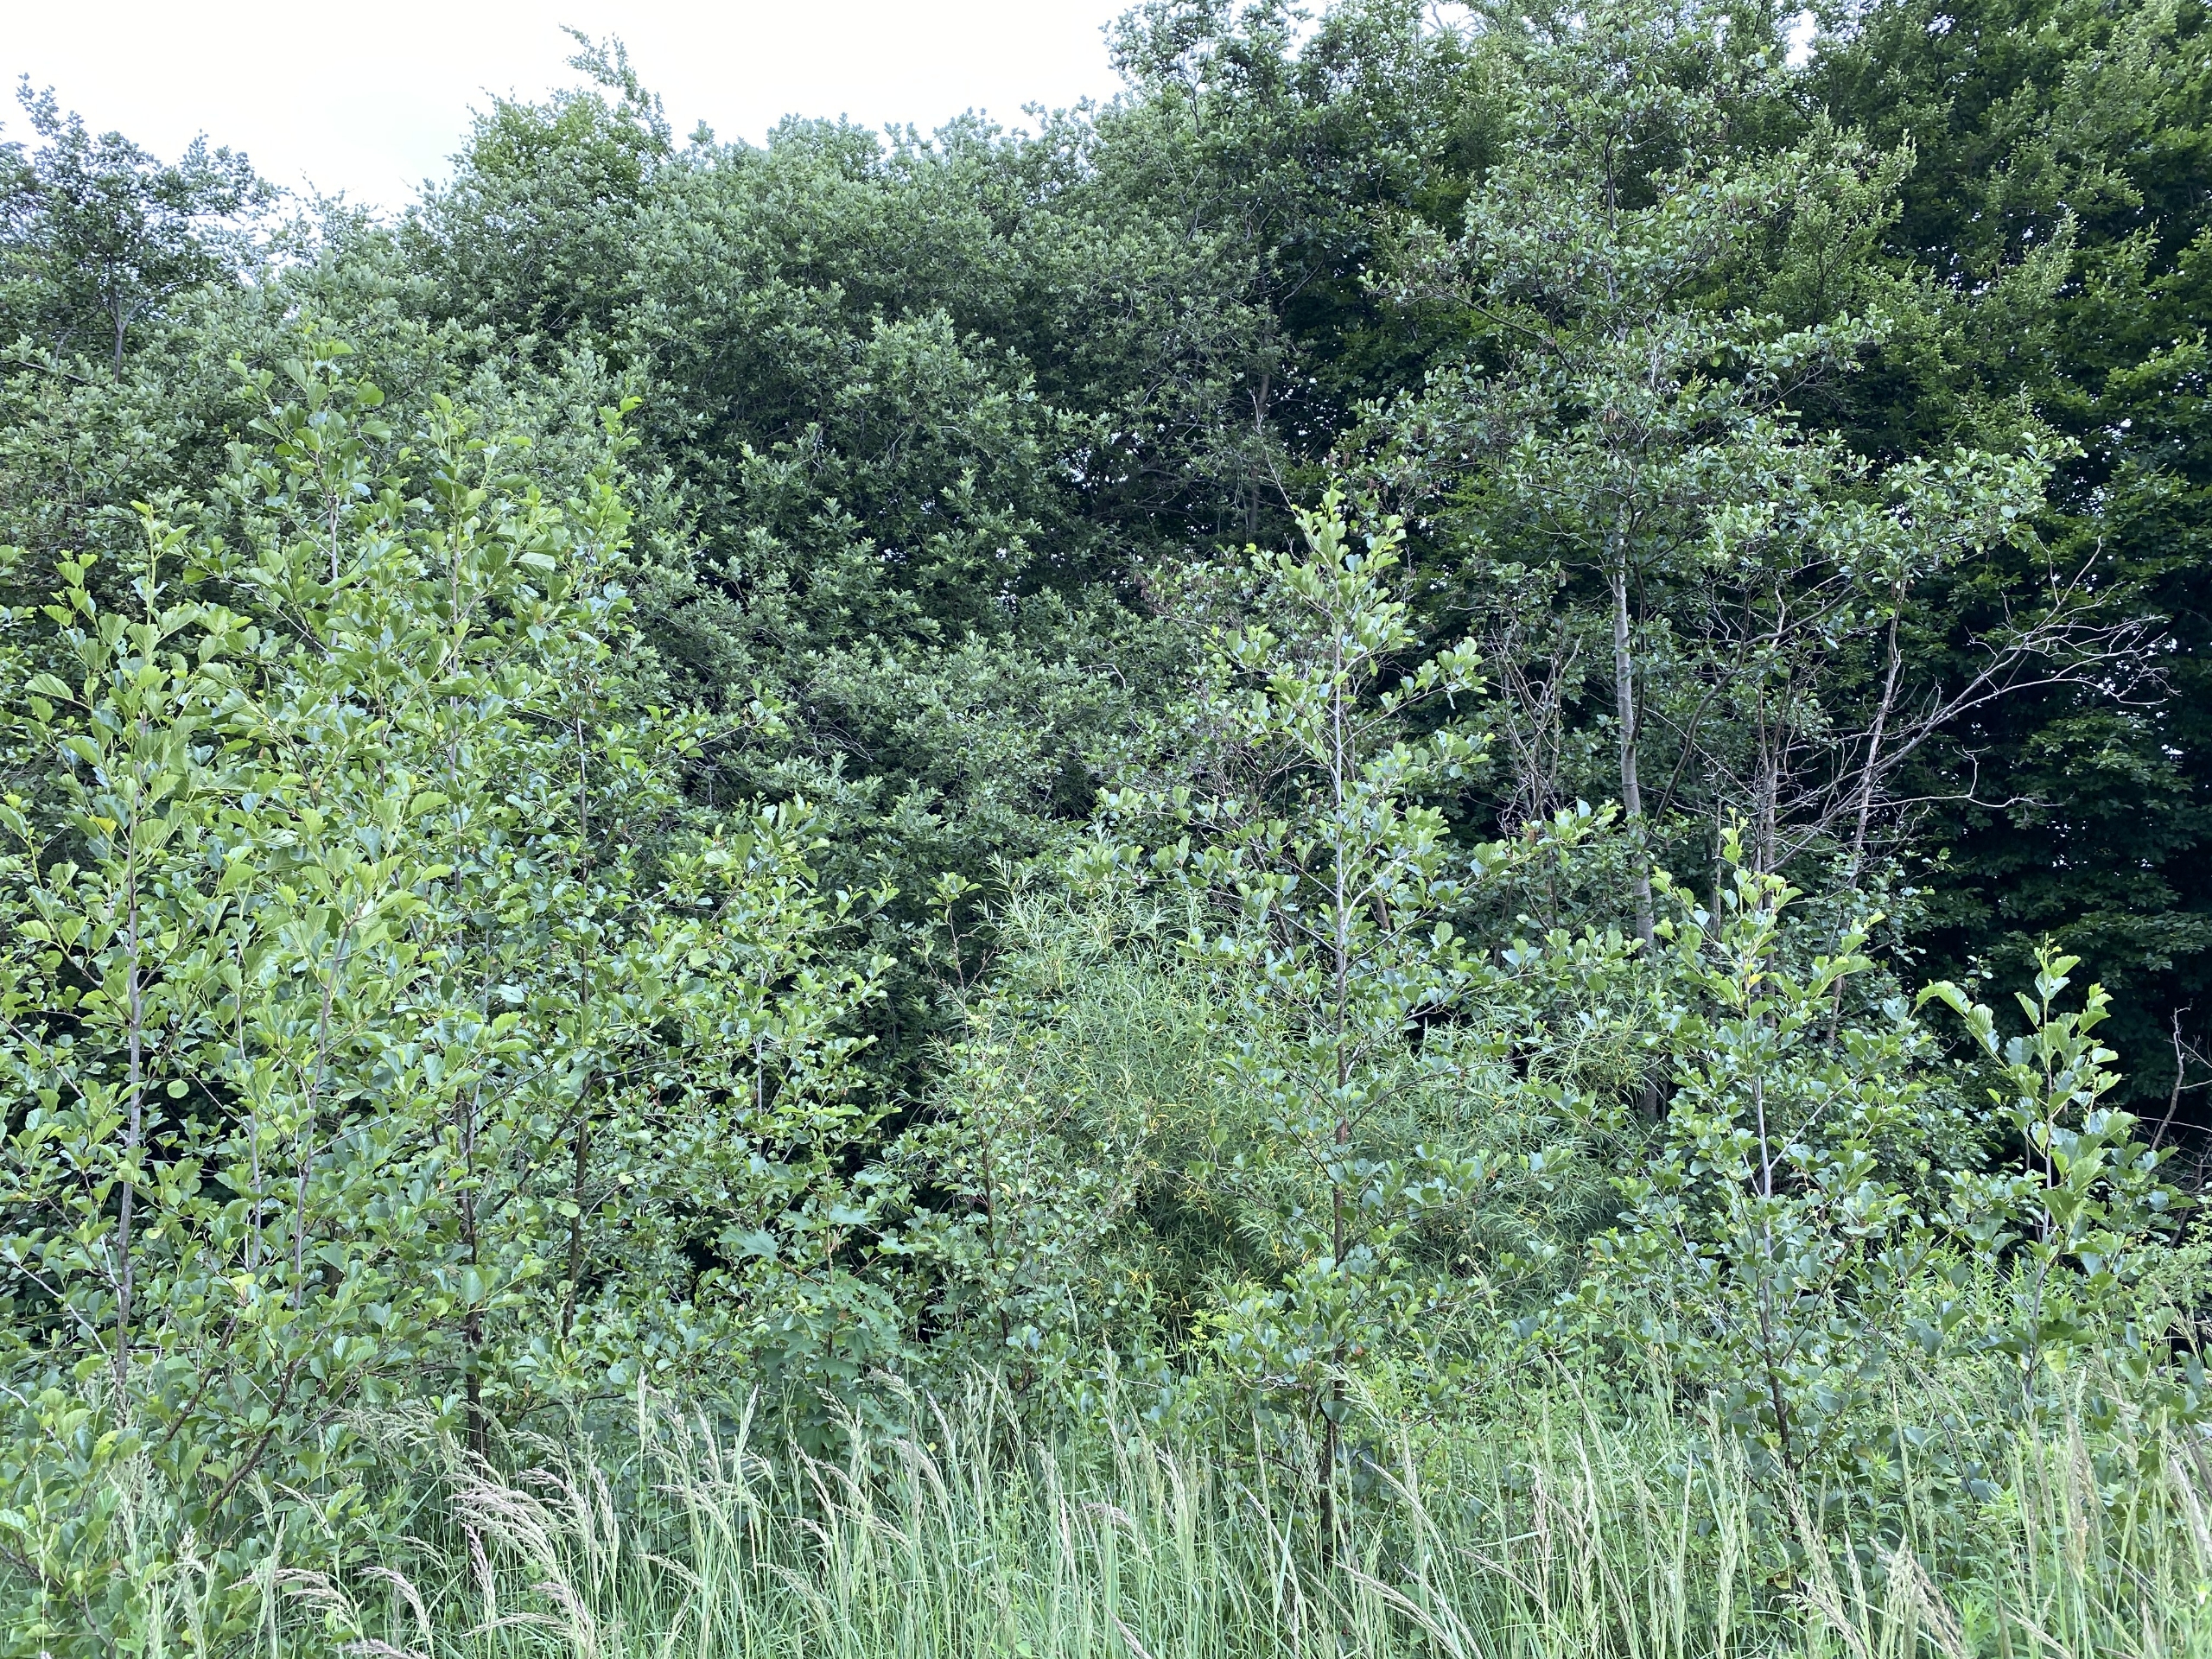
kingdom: Plantae
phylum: Tracheophyta
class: Magnoliopsida
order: Fagales
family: Betulaceae
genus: Alnus
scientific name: Alnus glutinosa
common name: Rød-el
